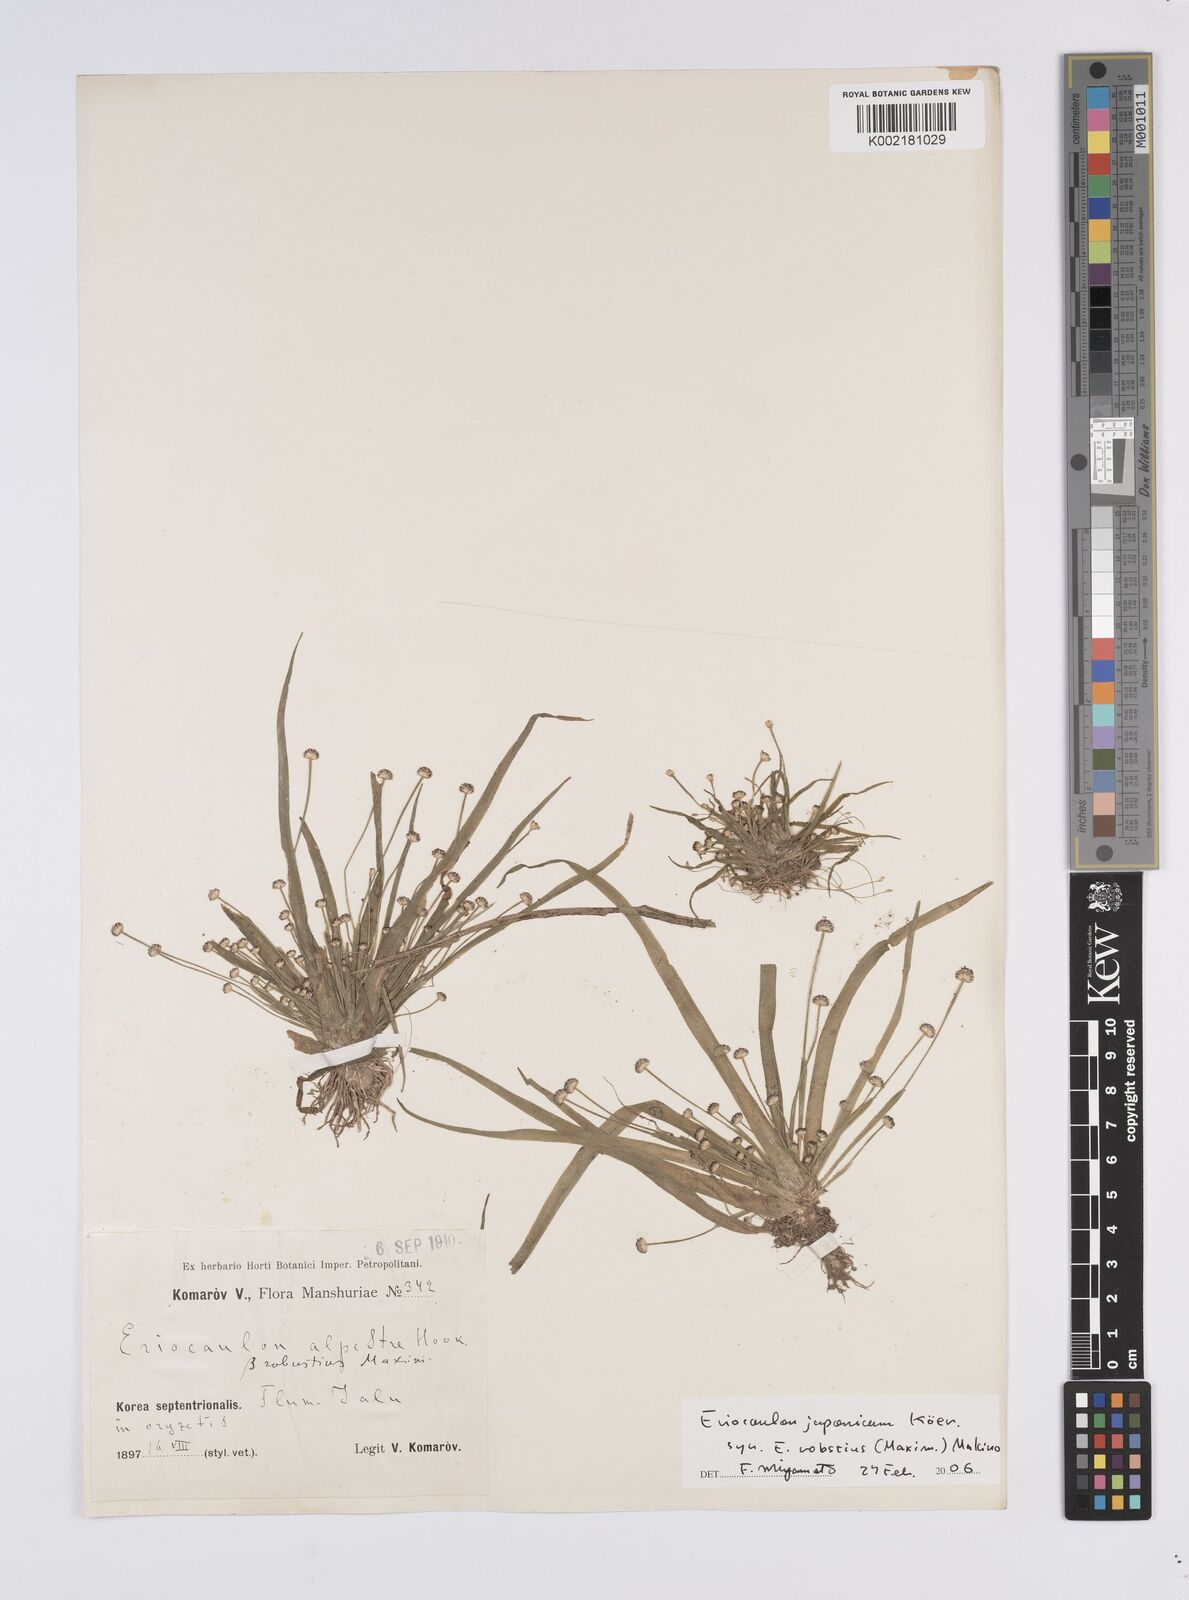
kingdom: Plantae
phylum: Tracheophyta
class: Liliopsida
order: Poales
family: Eriocaulaceae
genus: Eriocaulon
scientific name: Eriocaulon alpestre
